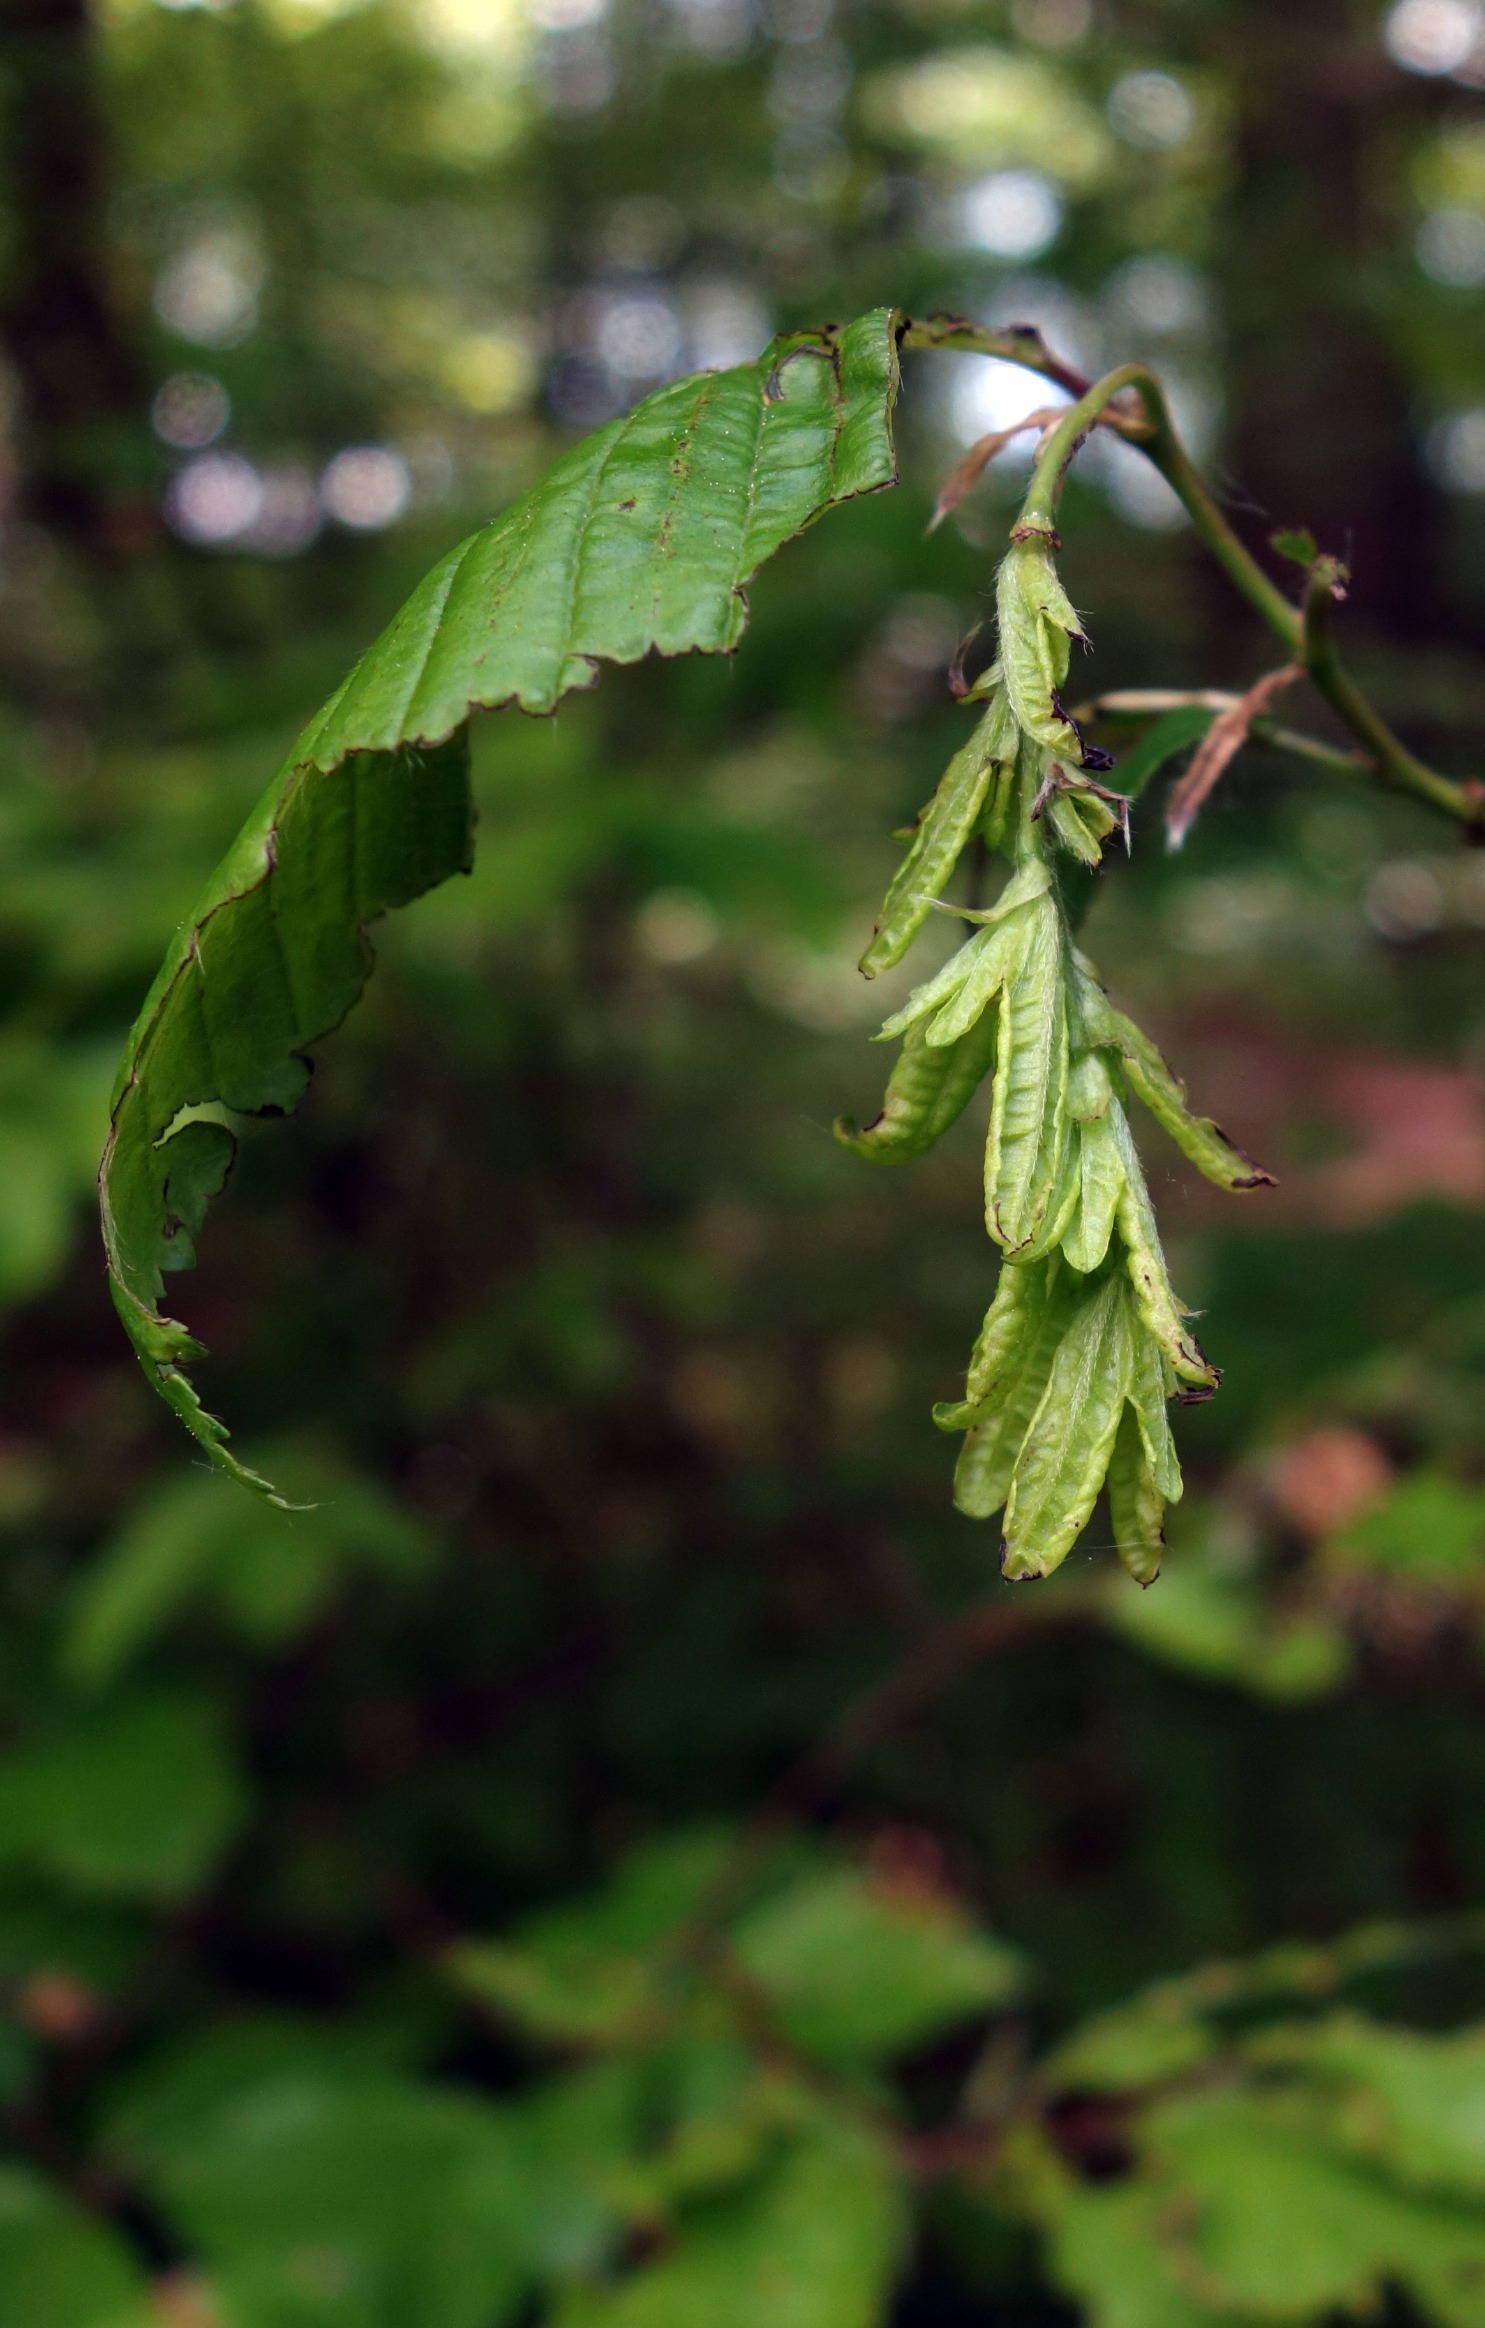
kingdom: Plantae
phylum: Tracheophyta
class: Magnoliopsida
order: Fagales
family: Betulaceae
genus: Carpinus
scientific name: Carpinus betulus
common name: Avnbøg
